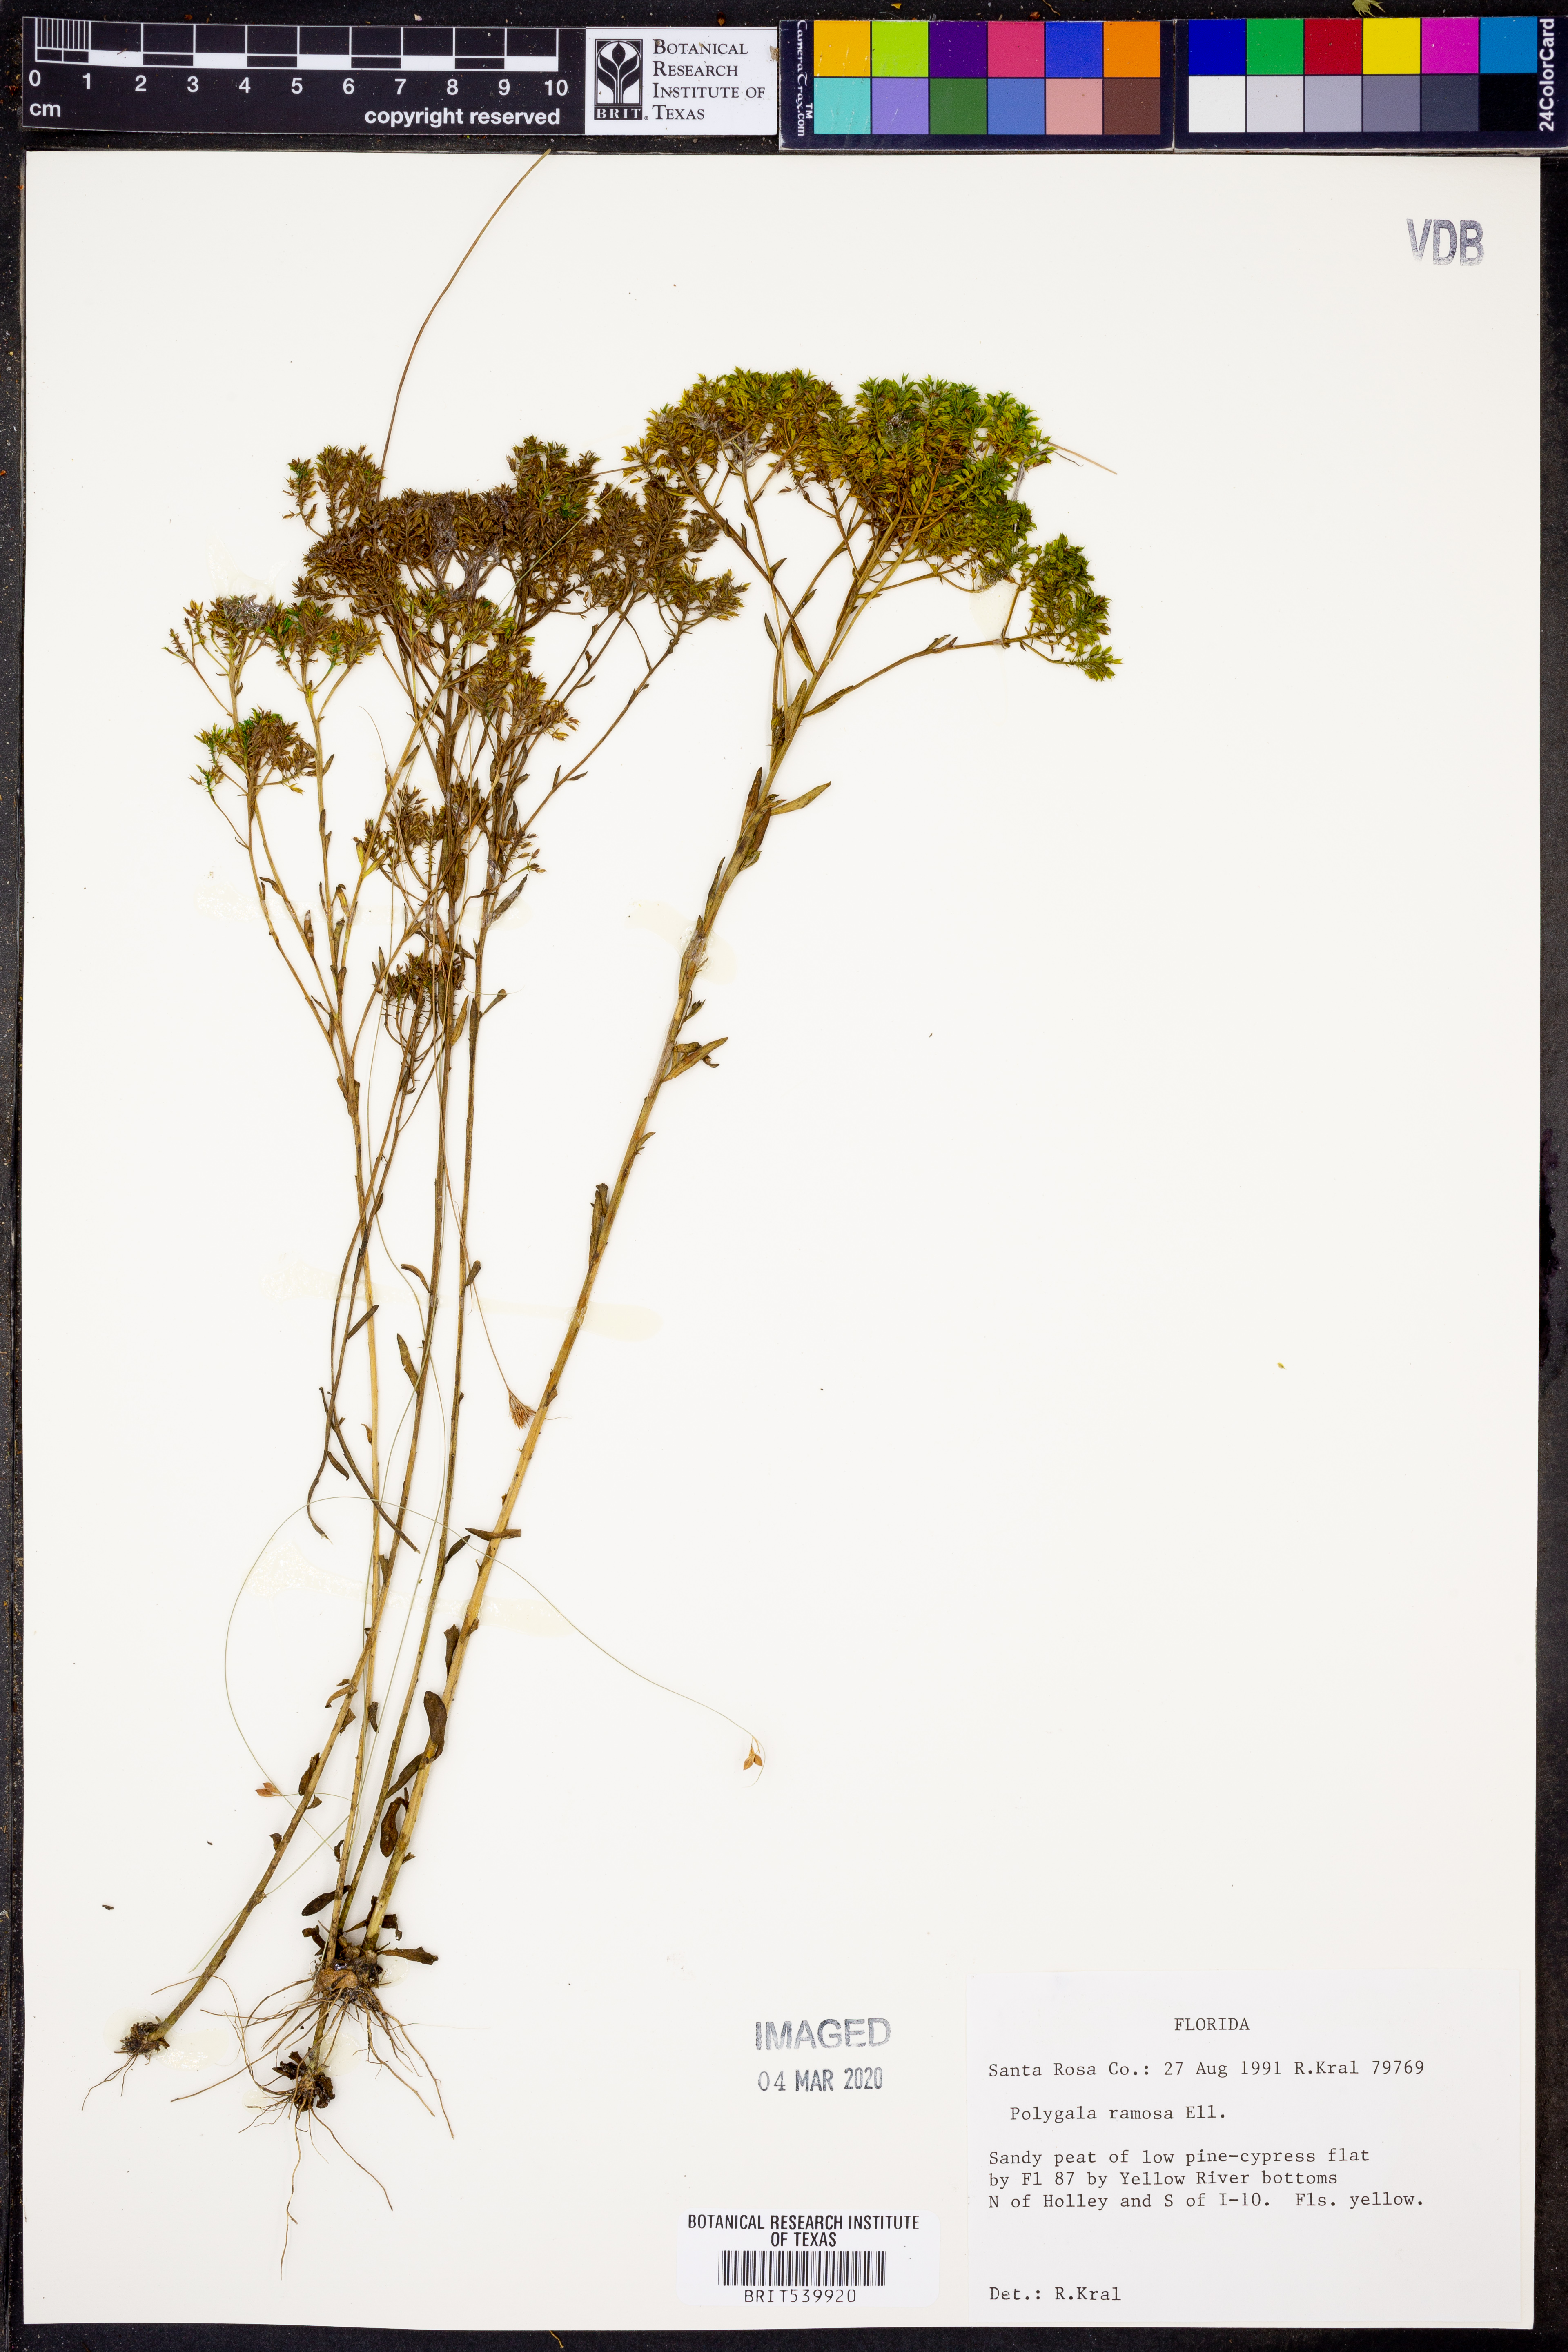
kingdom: Plantae
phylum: Tracheophyta
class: Magnoliopsida
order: Fabales
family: Polygalaceae
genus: Polygala
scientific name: Polygala ramosa
